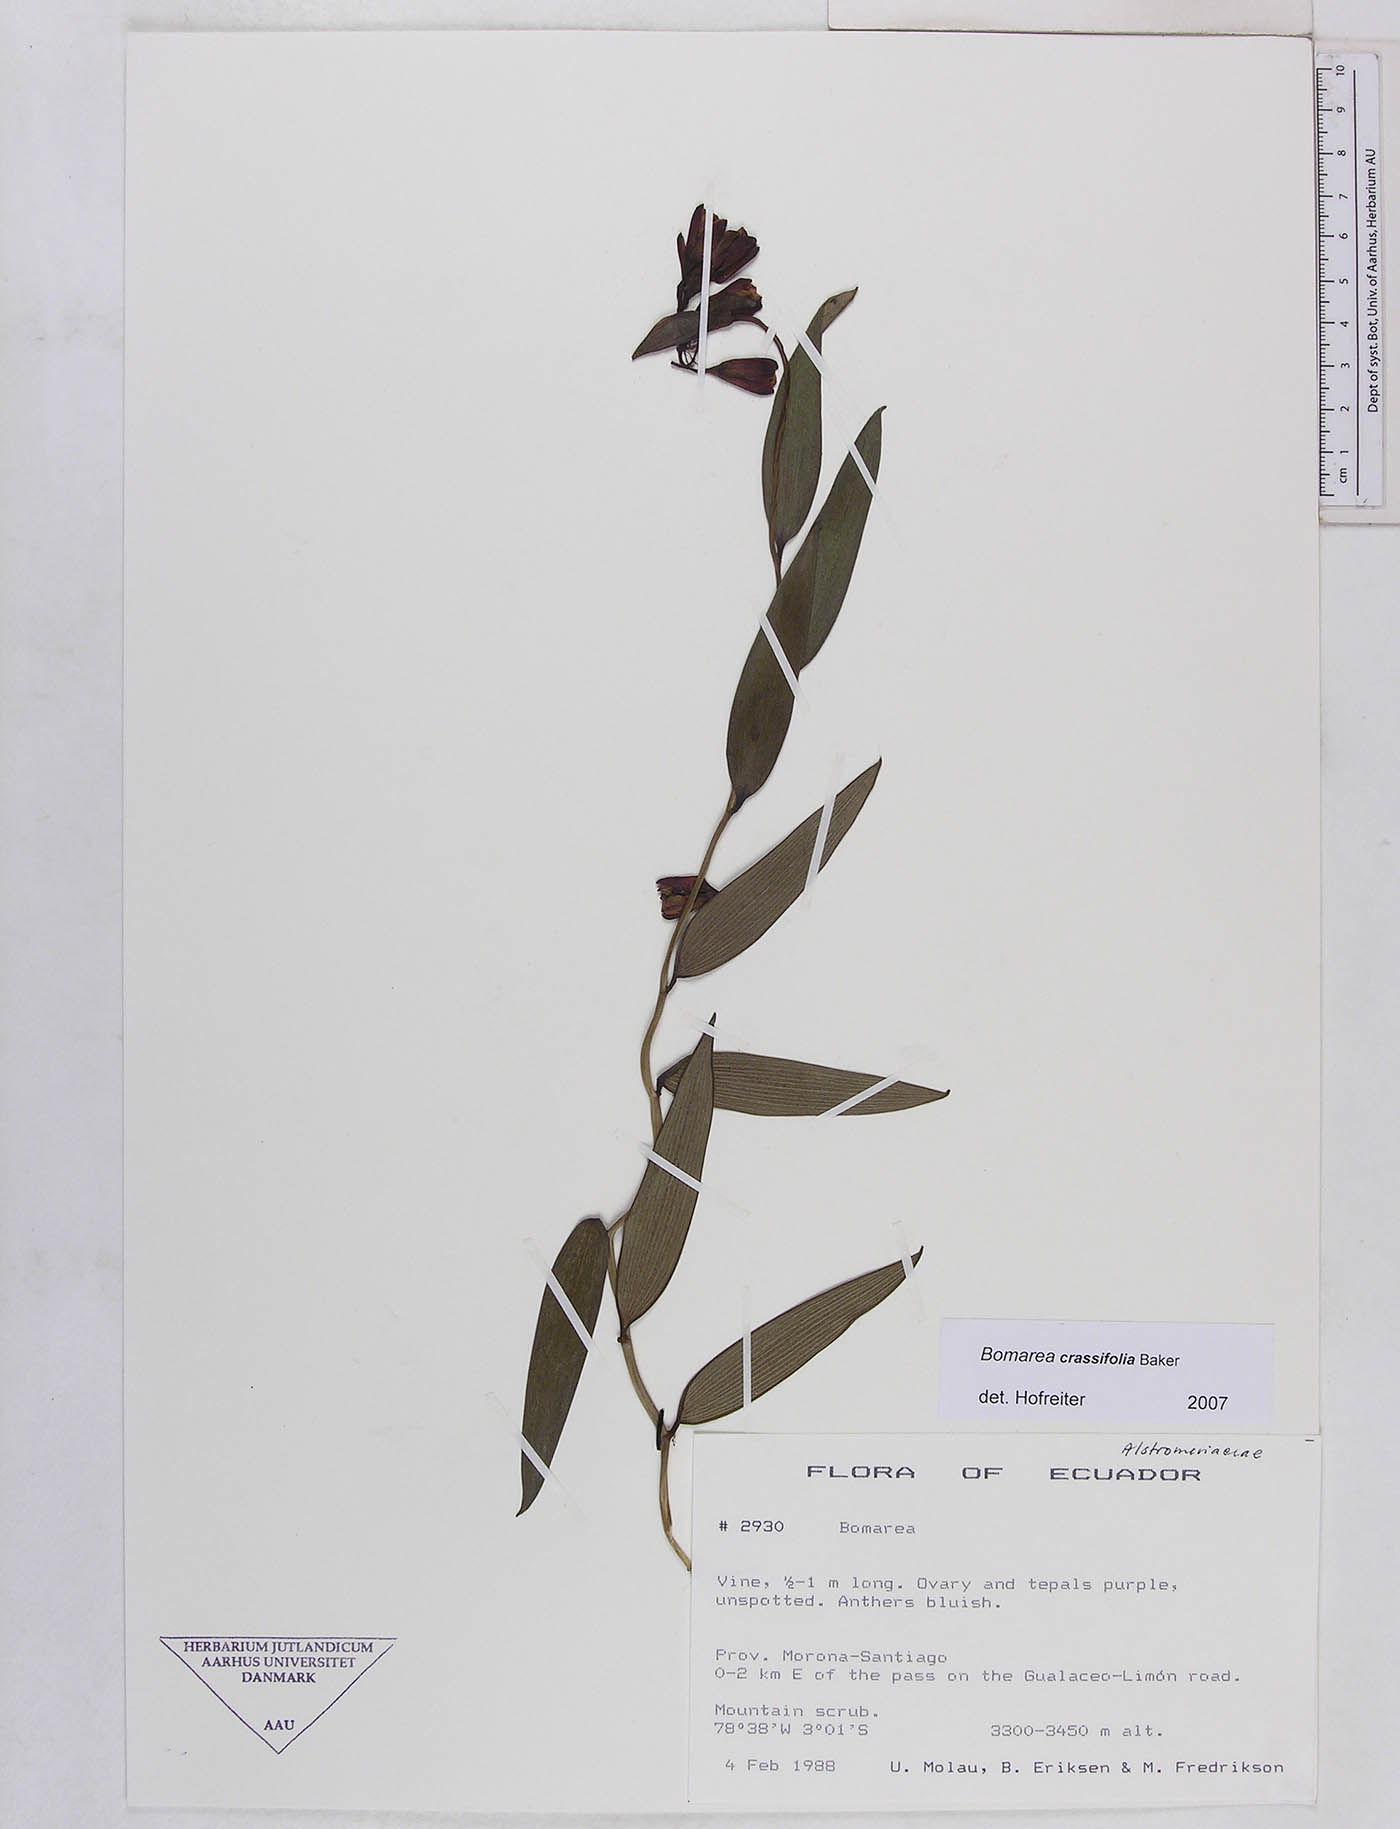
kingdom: Plantae
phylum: Tracheophyta
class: Liliopsida
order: Liliales
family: Alstroemeriaceae
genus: Bomarea
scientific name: Bomarea crassifolia
